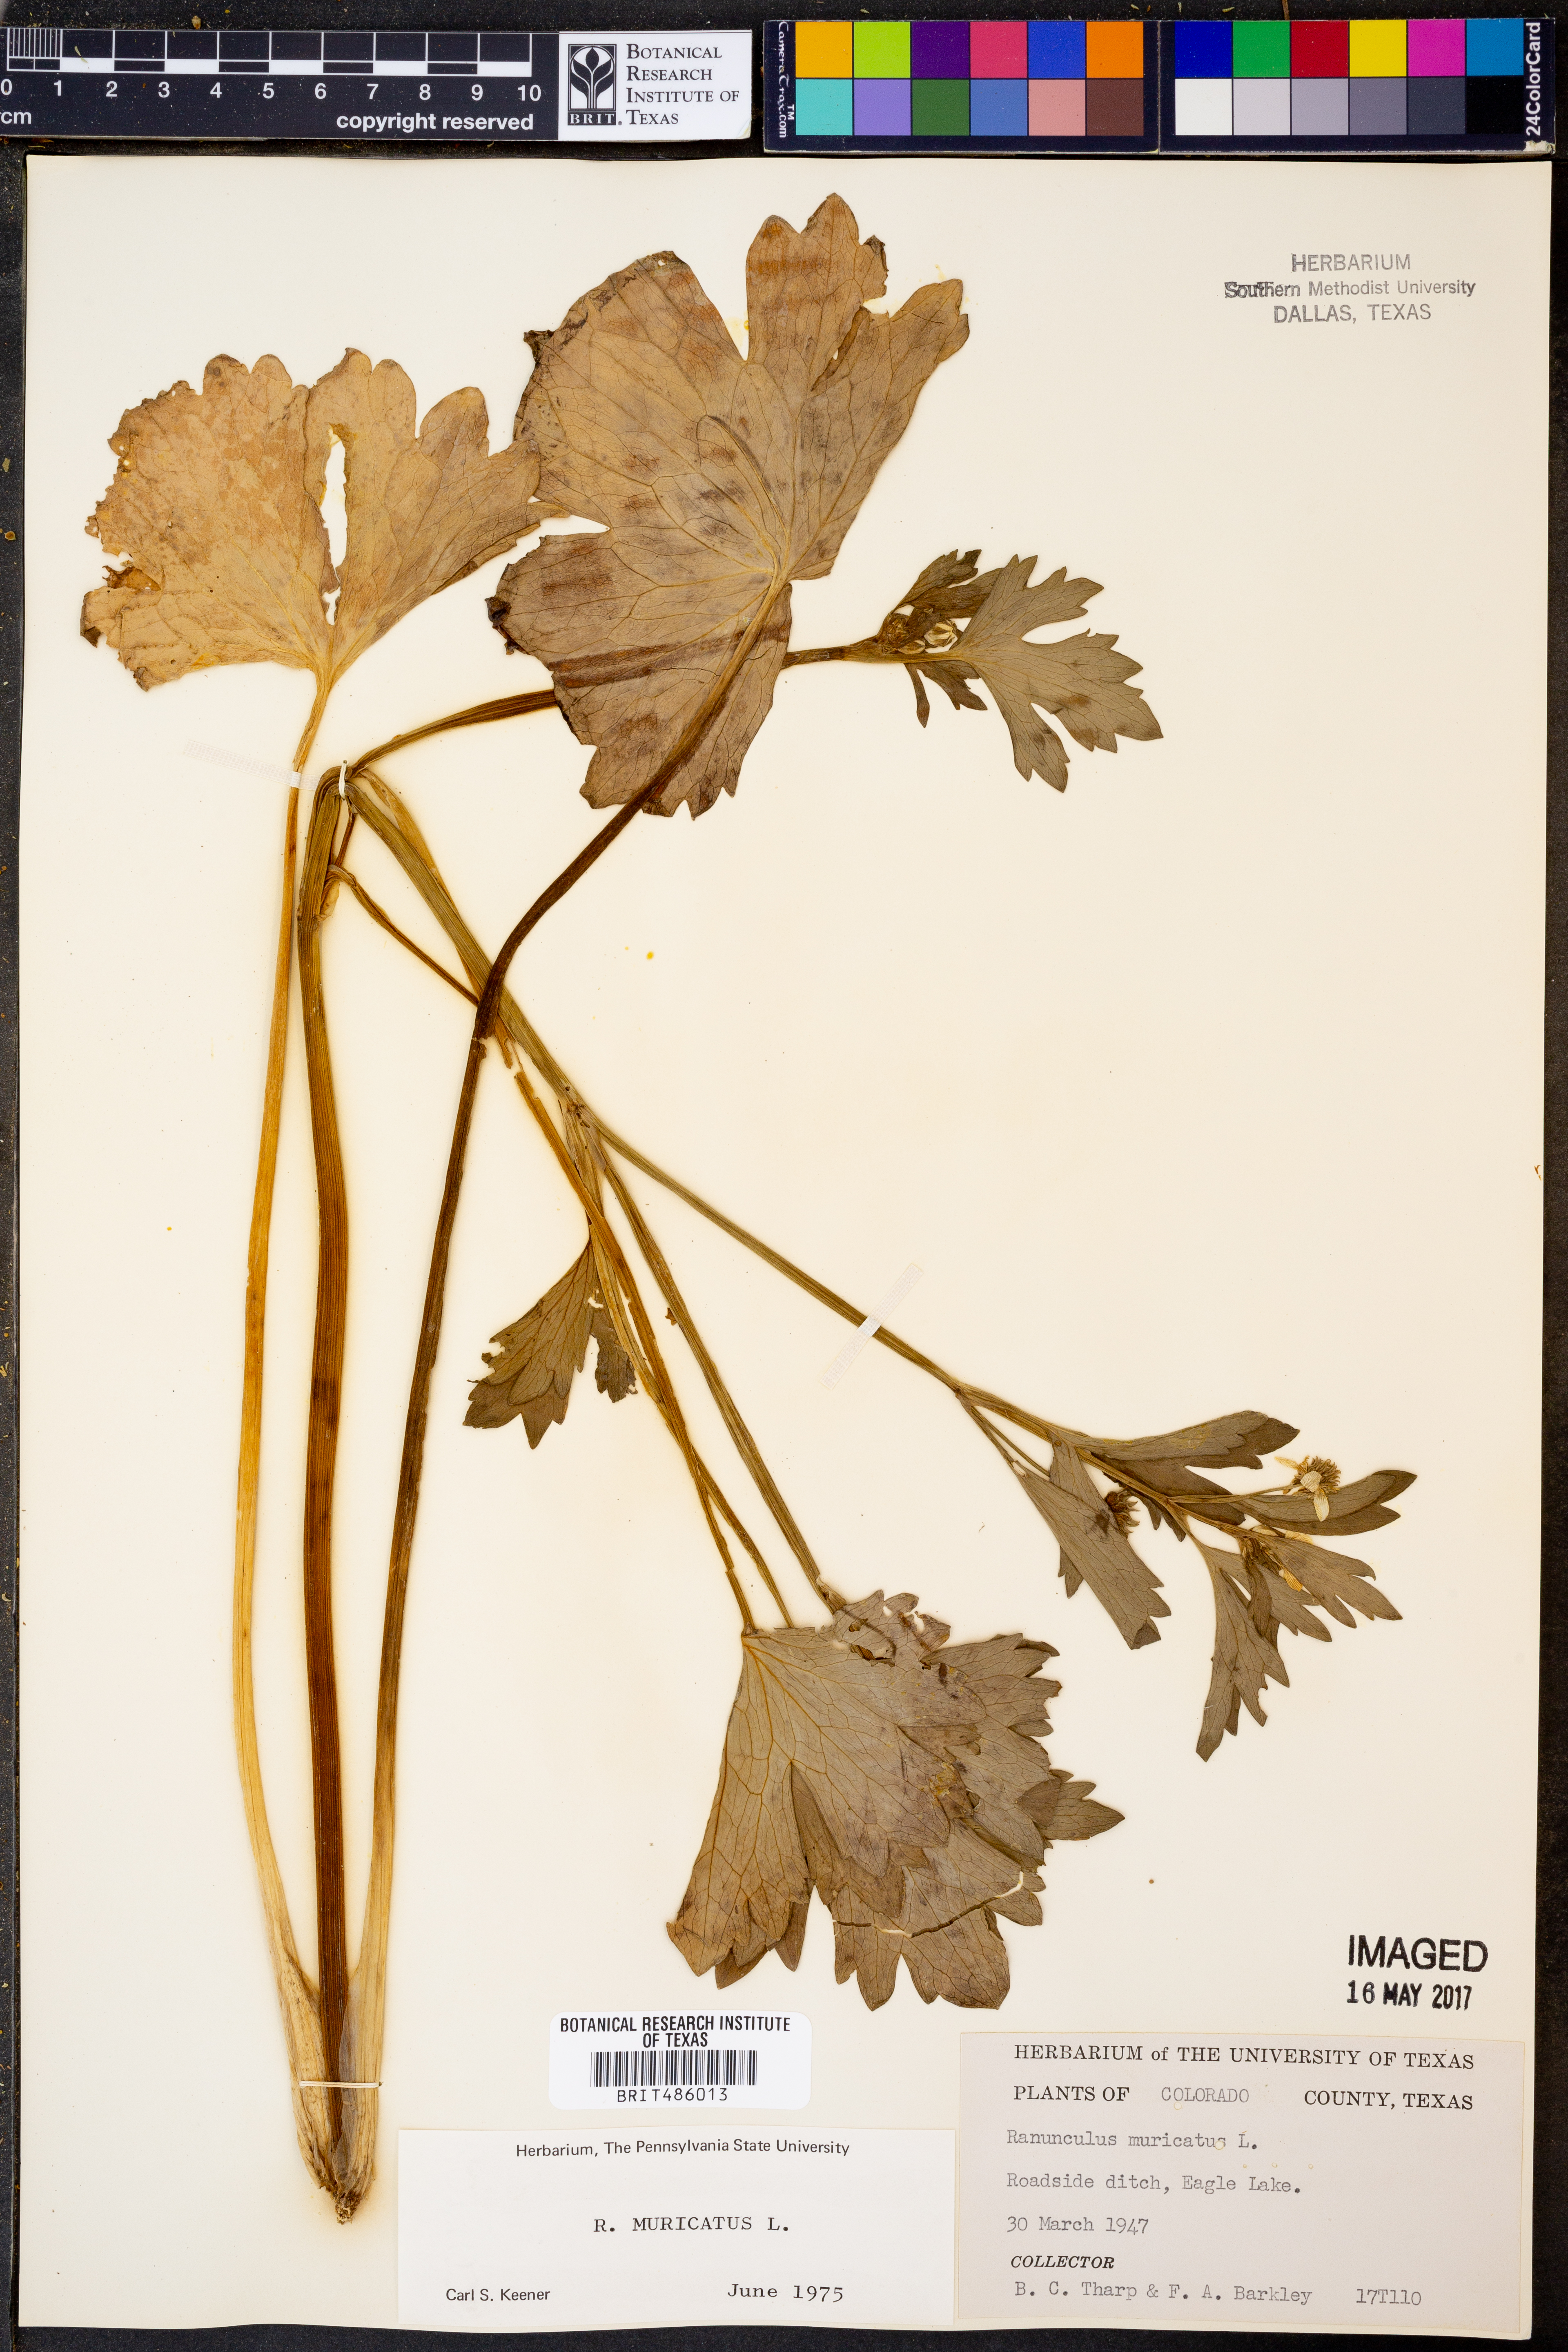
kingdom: Plantae
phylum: Tracheophyta
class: Magnoliopsida
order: Ranunculales
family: Ranunculaceae
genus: Ranunculus
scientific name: Ranunculus muricatus
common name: Rough-fruited buttercup
